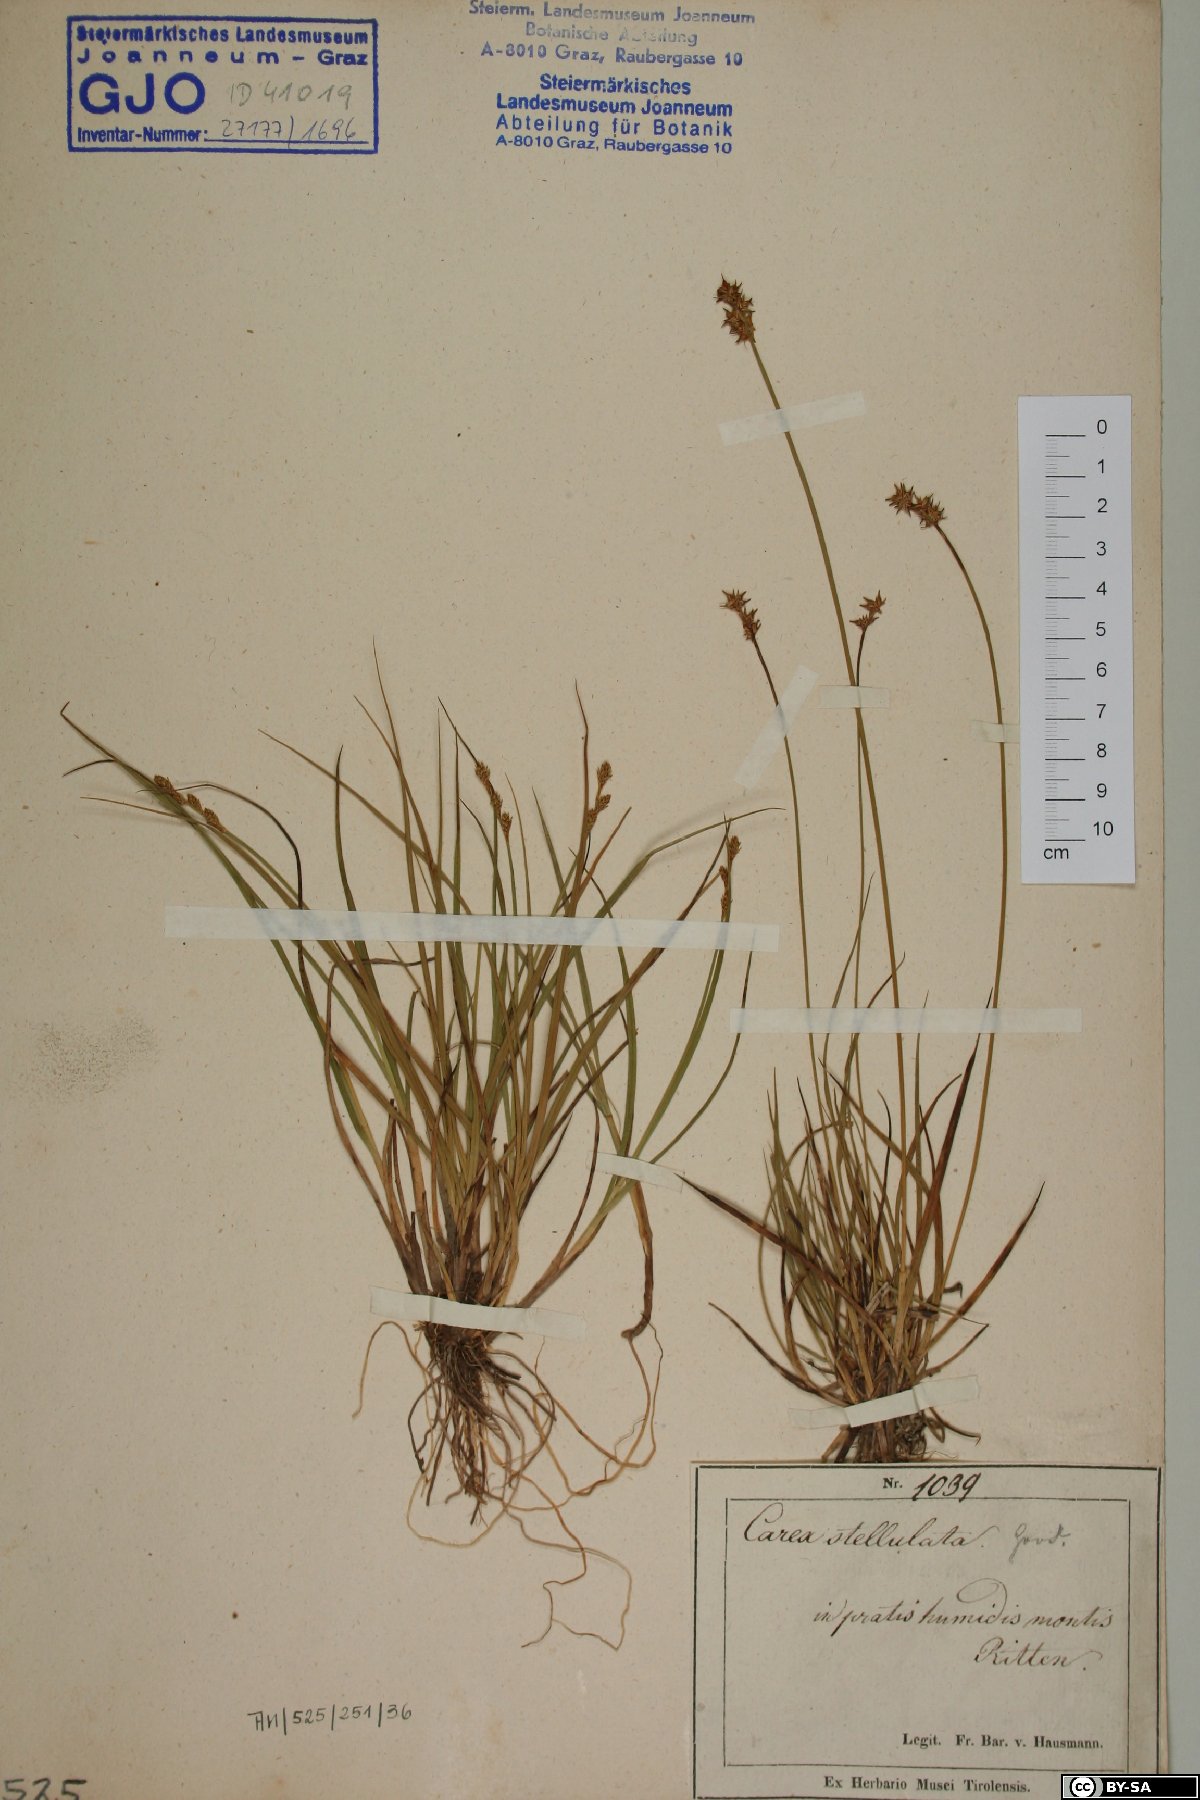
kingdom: Plantae
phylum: Tracheophyta
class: Liliopsida
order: Poales
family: Cyperaceae
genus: Carex
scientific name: Carex echinata
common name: Star sedge
